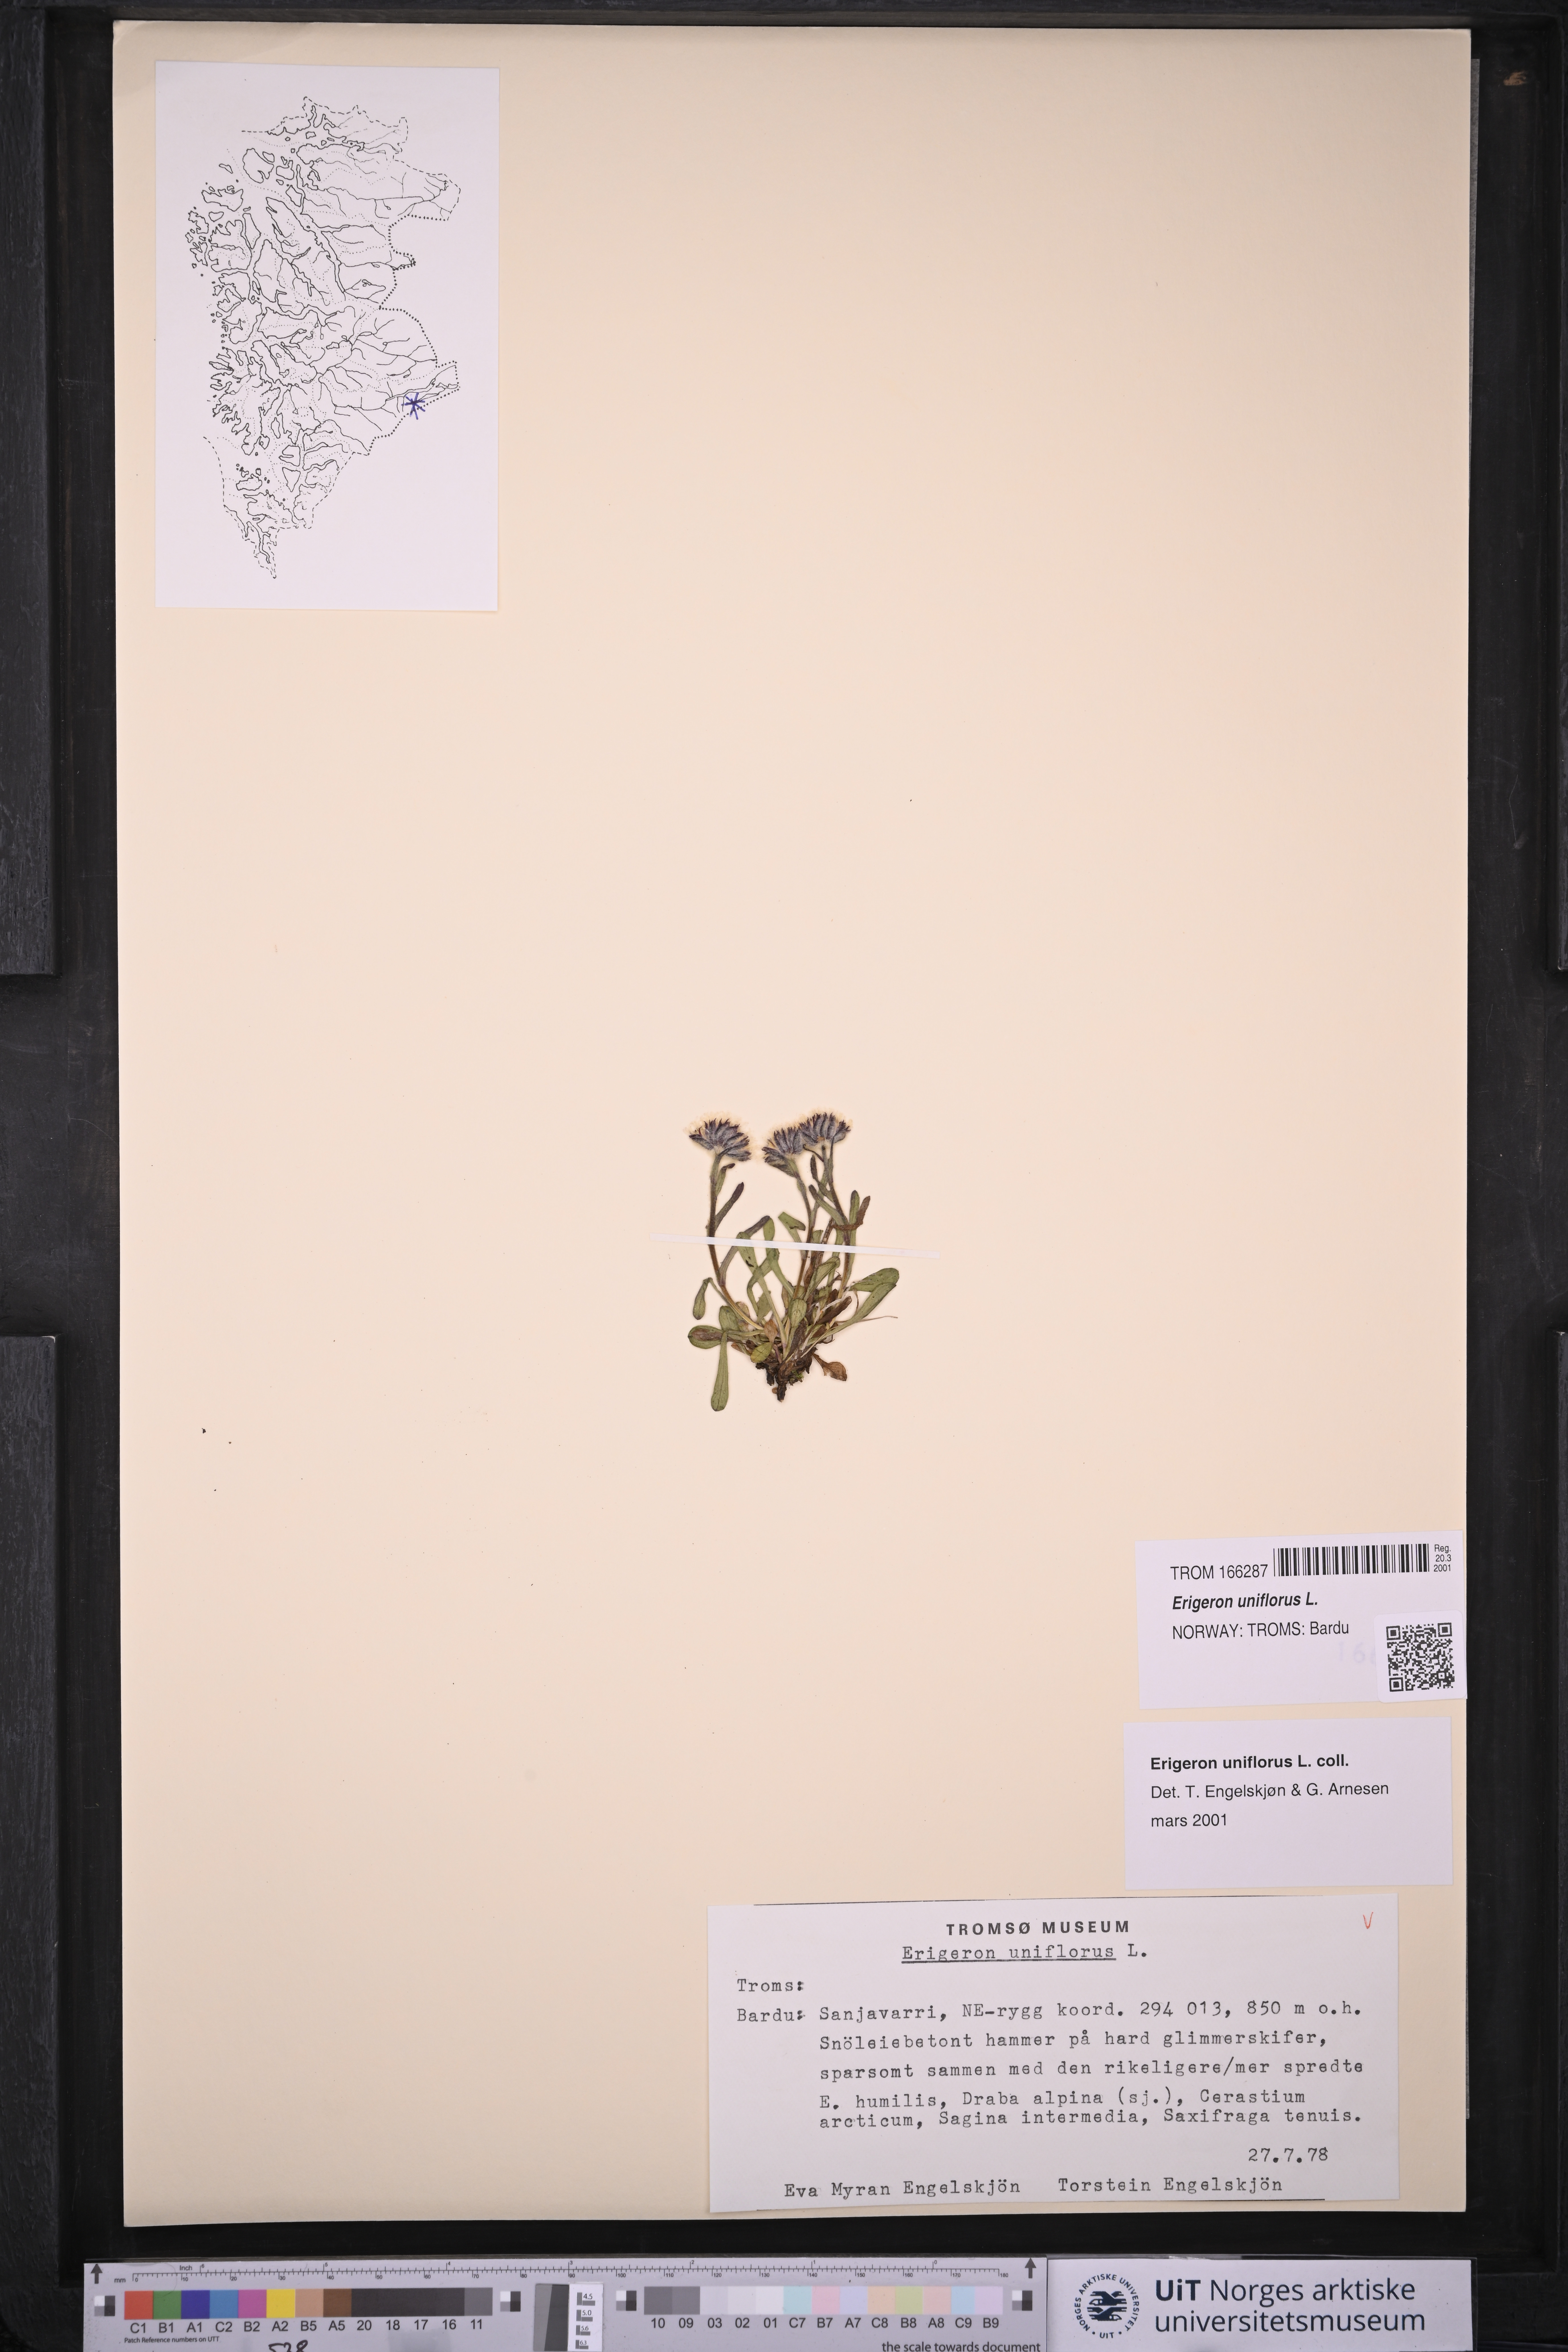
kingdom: Plantae
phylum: Tracheophyta
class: Magnoliopsida
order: Asterales
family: Asteraceae
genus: Erigeron
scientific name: Erigeron uniflorus
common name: Northern daisy
